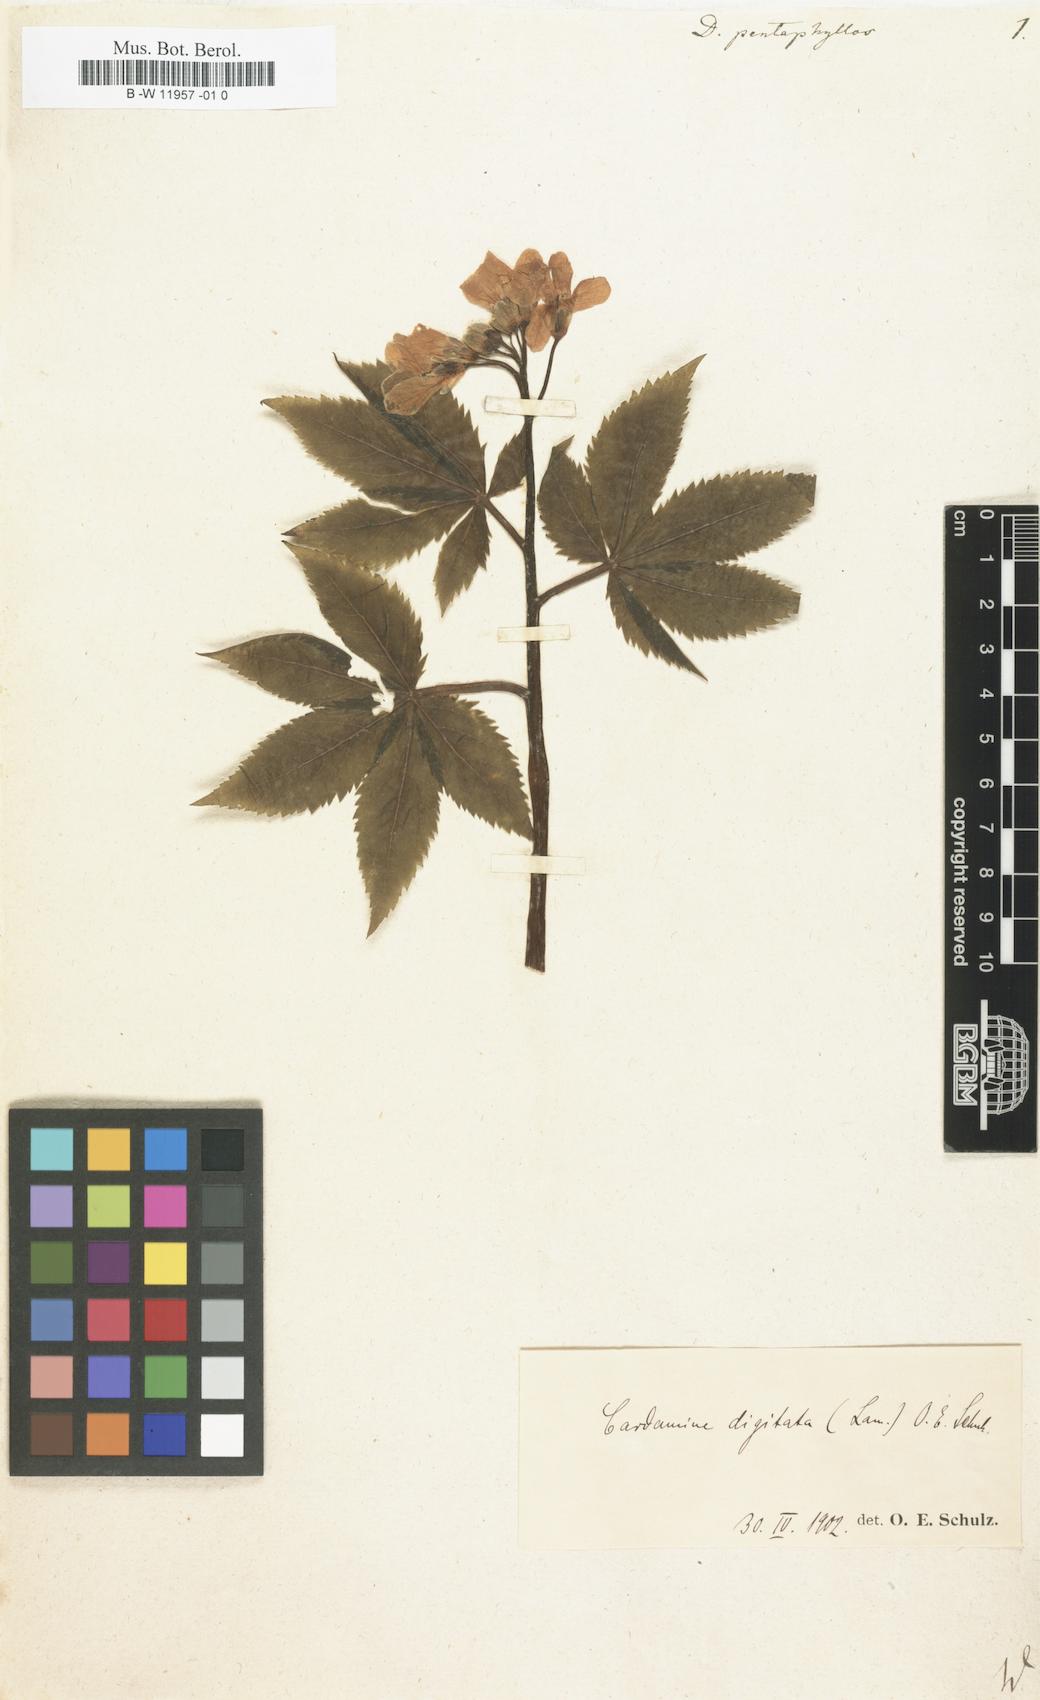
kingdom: Plantae
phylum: Tracheophyta
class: Magnoliopsida
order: Brassicales
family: Brassicaceae
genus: Cardamine
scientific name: Cardamine pentaphyllos
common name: Five-leaflet bitter-cress
